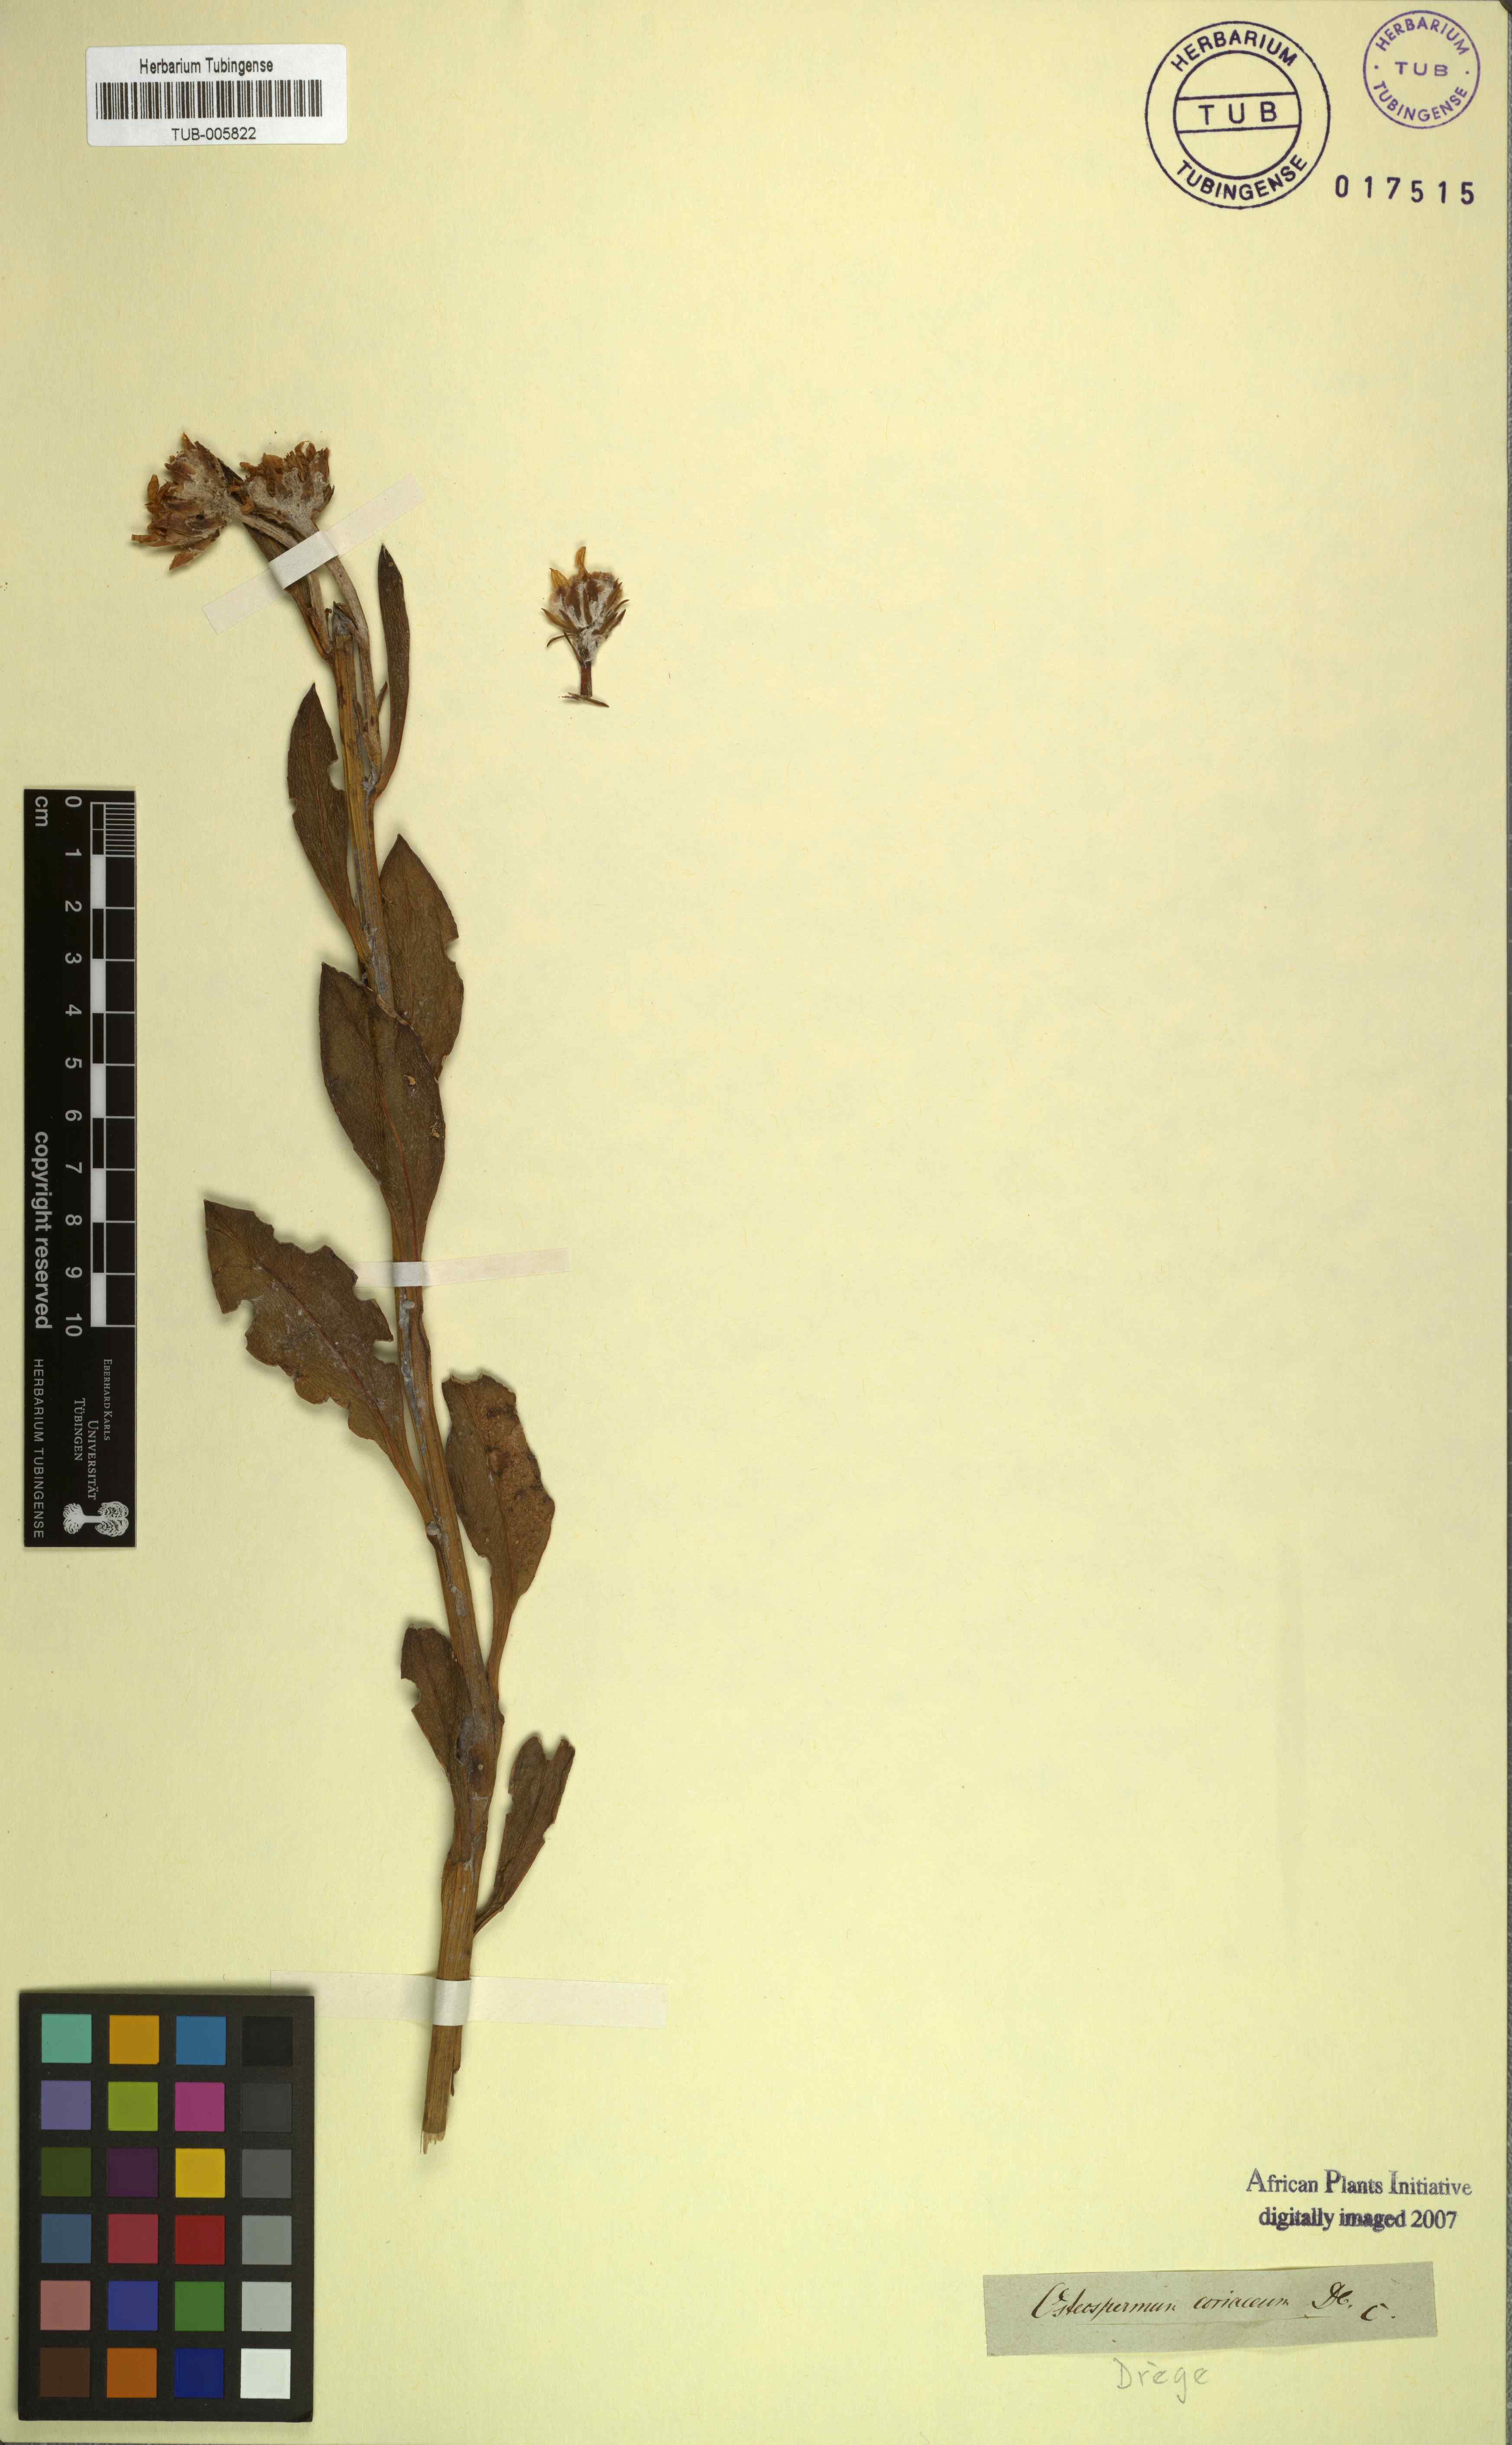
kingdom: Plantae
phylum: Tracheophyta
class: Magnoliopsida
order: Asterales
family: Asteraceae
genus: Osteospermum
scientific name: Osteospermum junceum
